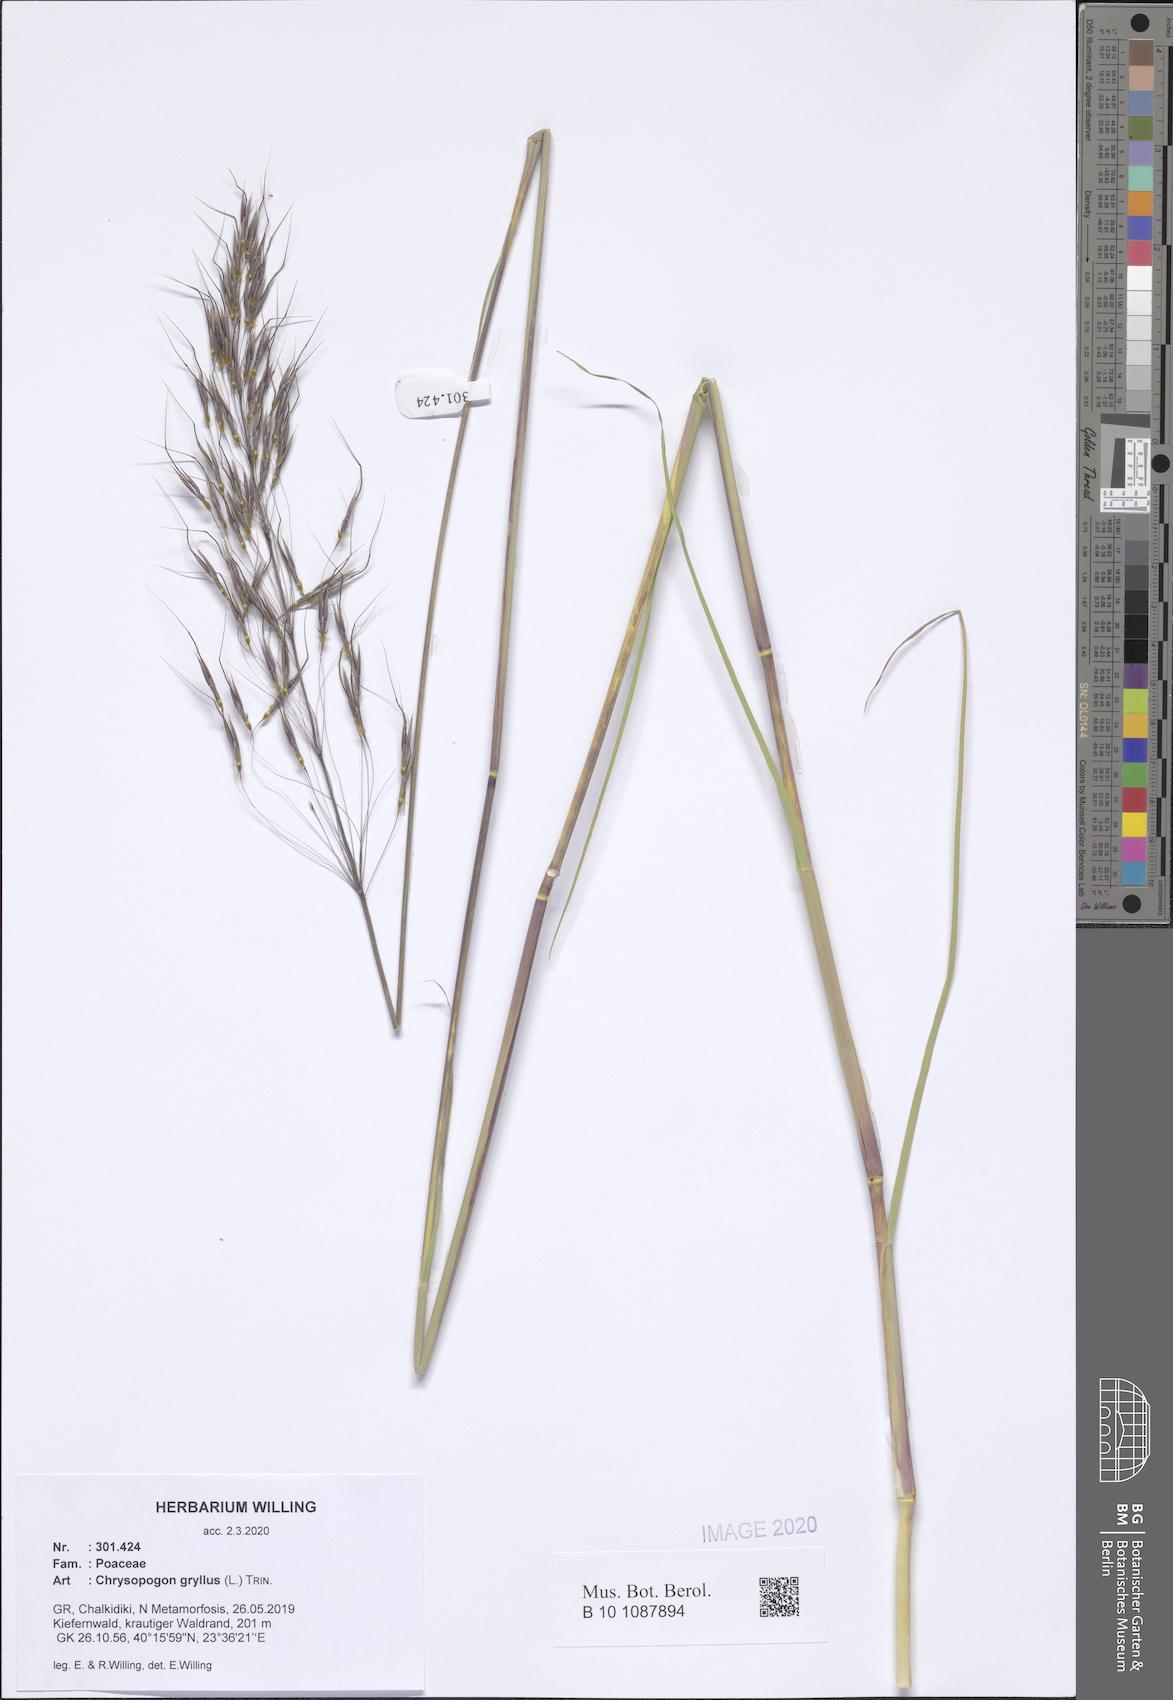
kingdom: Plantae
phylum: Tracheophyta
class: Liliopsida
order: Poales
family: Poaceae
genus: Chrysopogon
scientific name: Chrysopogon gryllus
